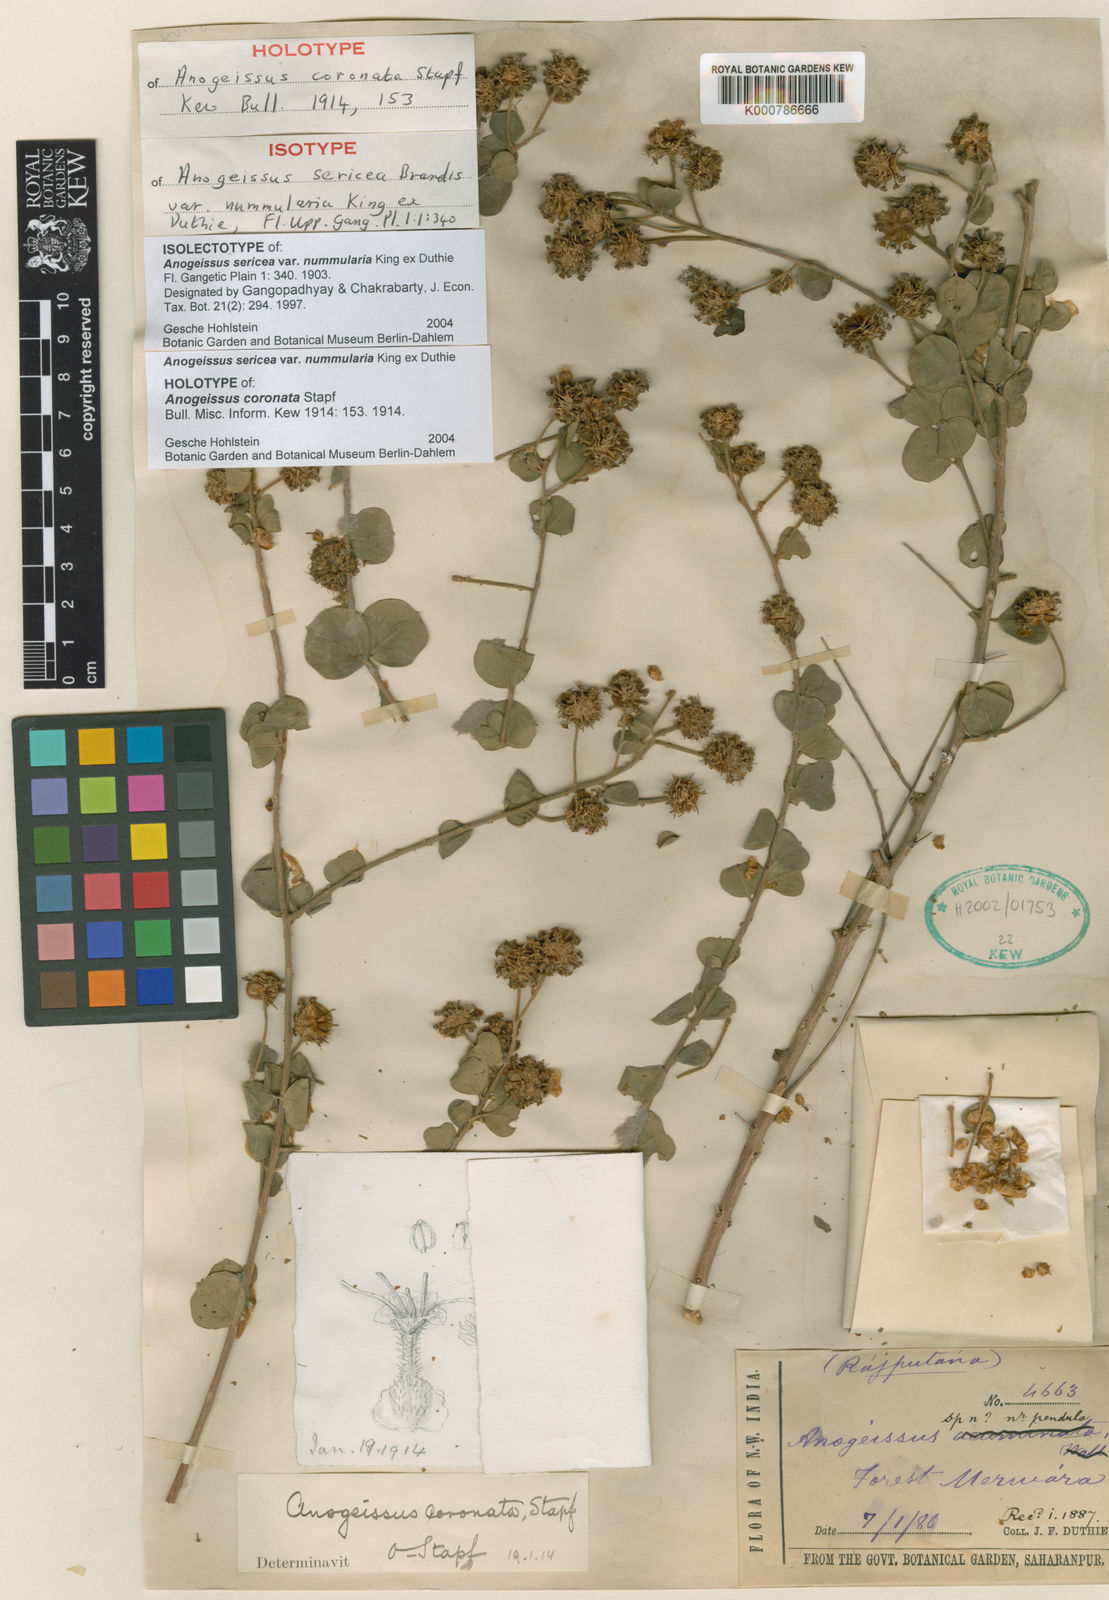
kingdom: Plantae
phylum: Tracheophyta
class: Magnoliopsida
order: Myrtales
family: Combretaceae
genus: Terminalia
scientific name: Terminalia coronata
